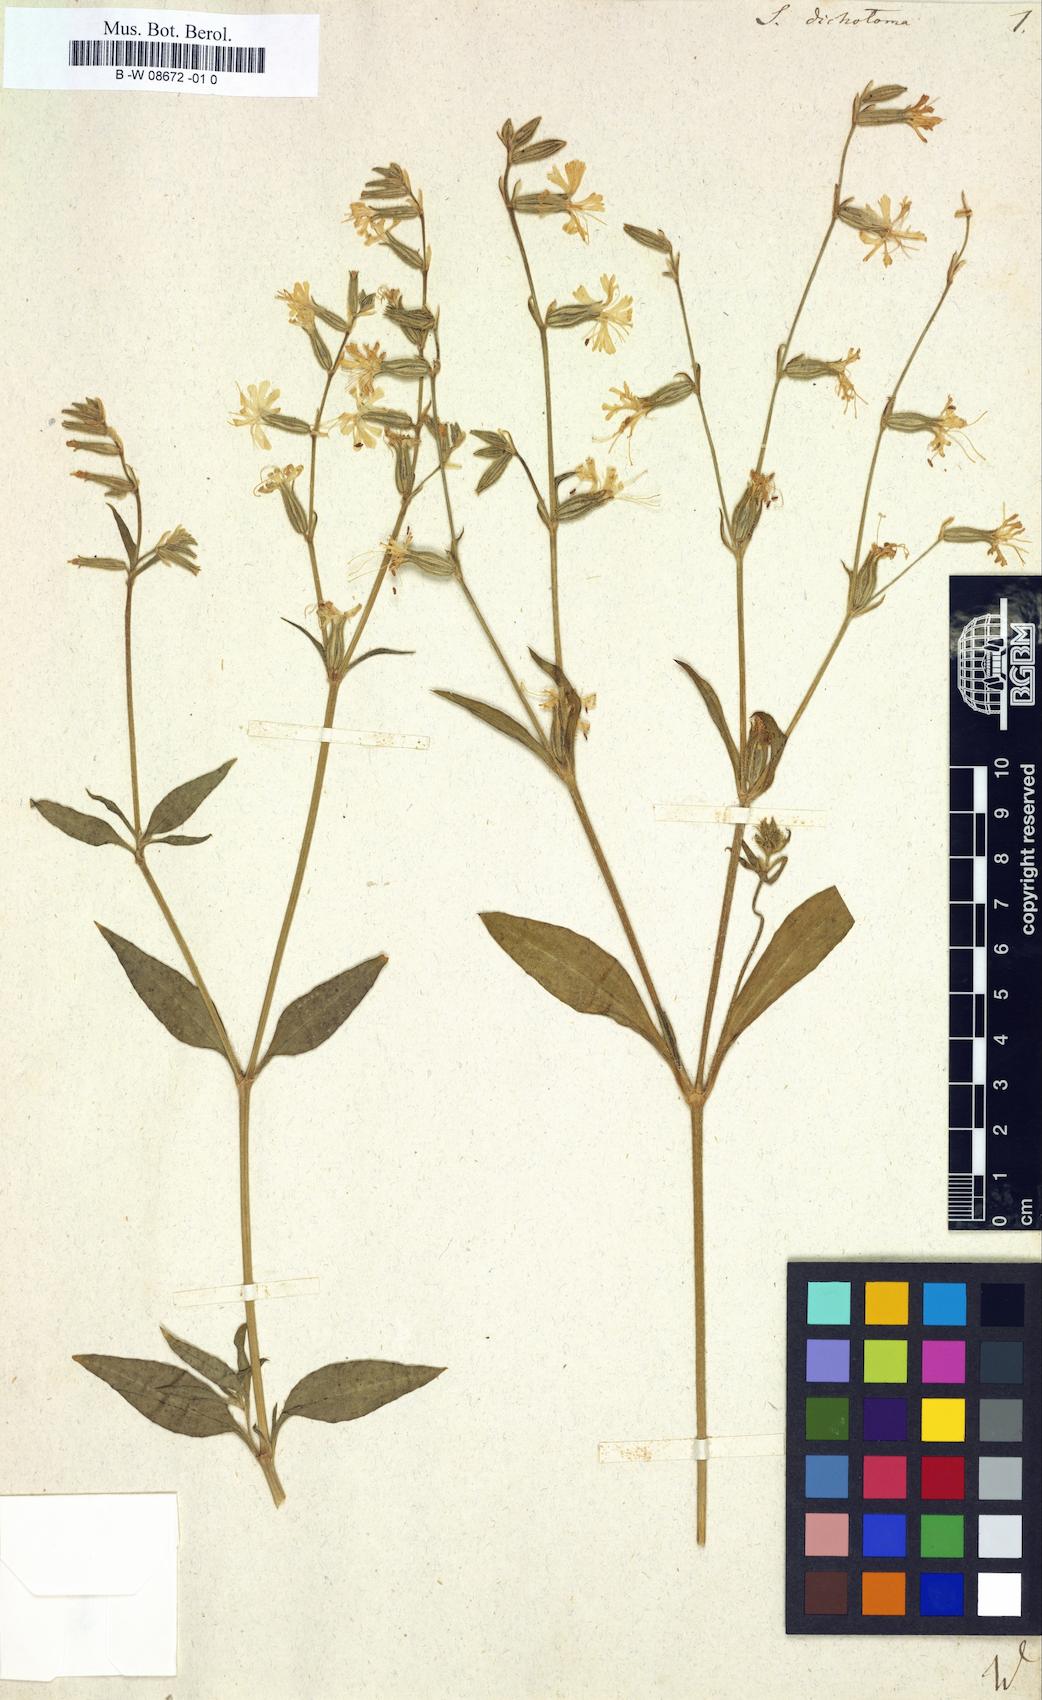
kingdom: Plantae
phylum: Tracheophyta
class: Magnoliopsida
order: Caryophyllales
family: Caryophyllaceae
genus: Silene
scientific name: Silene dichotoma
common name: Forked catchfly
